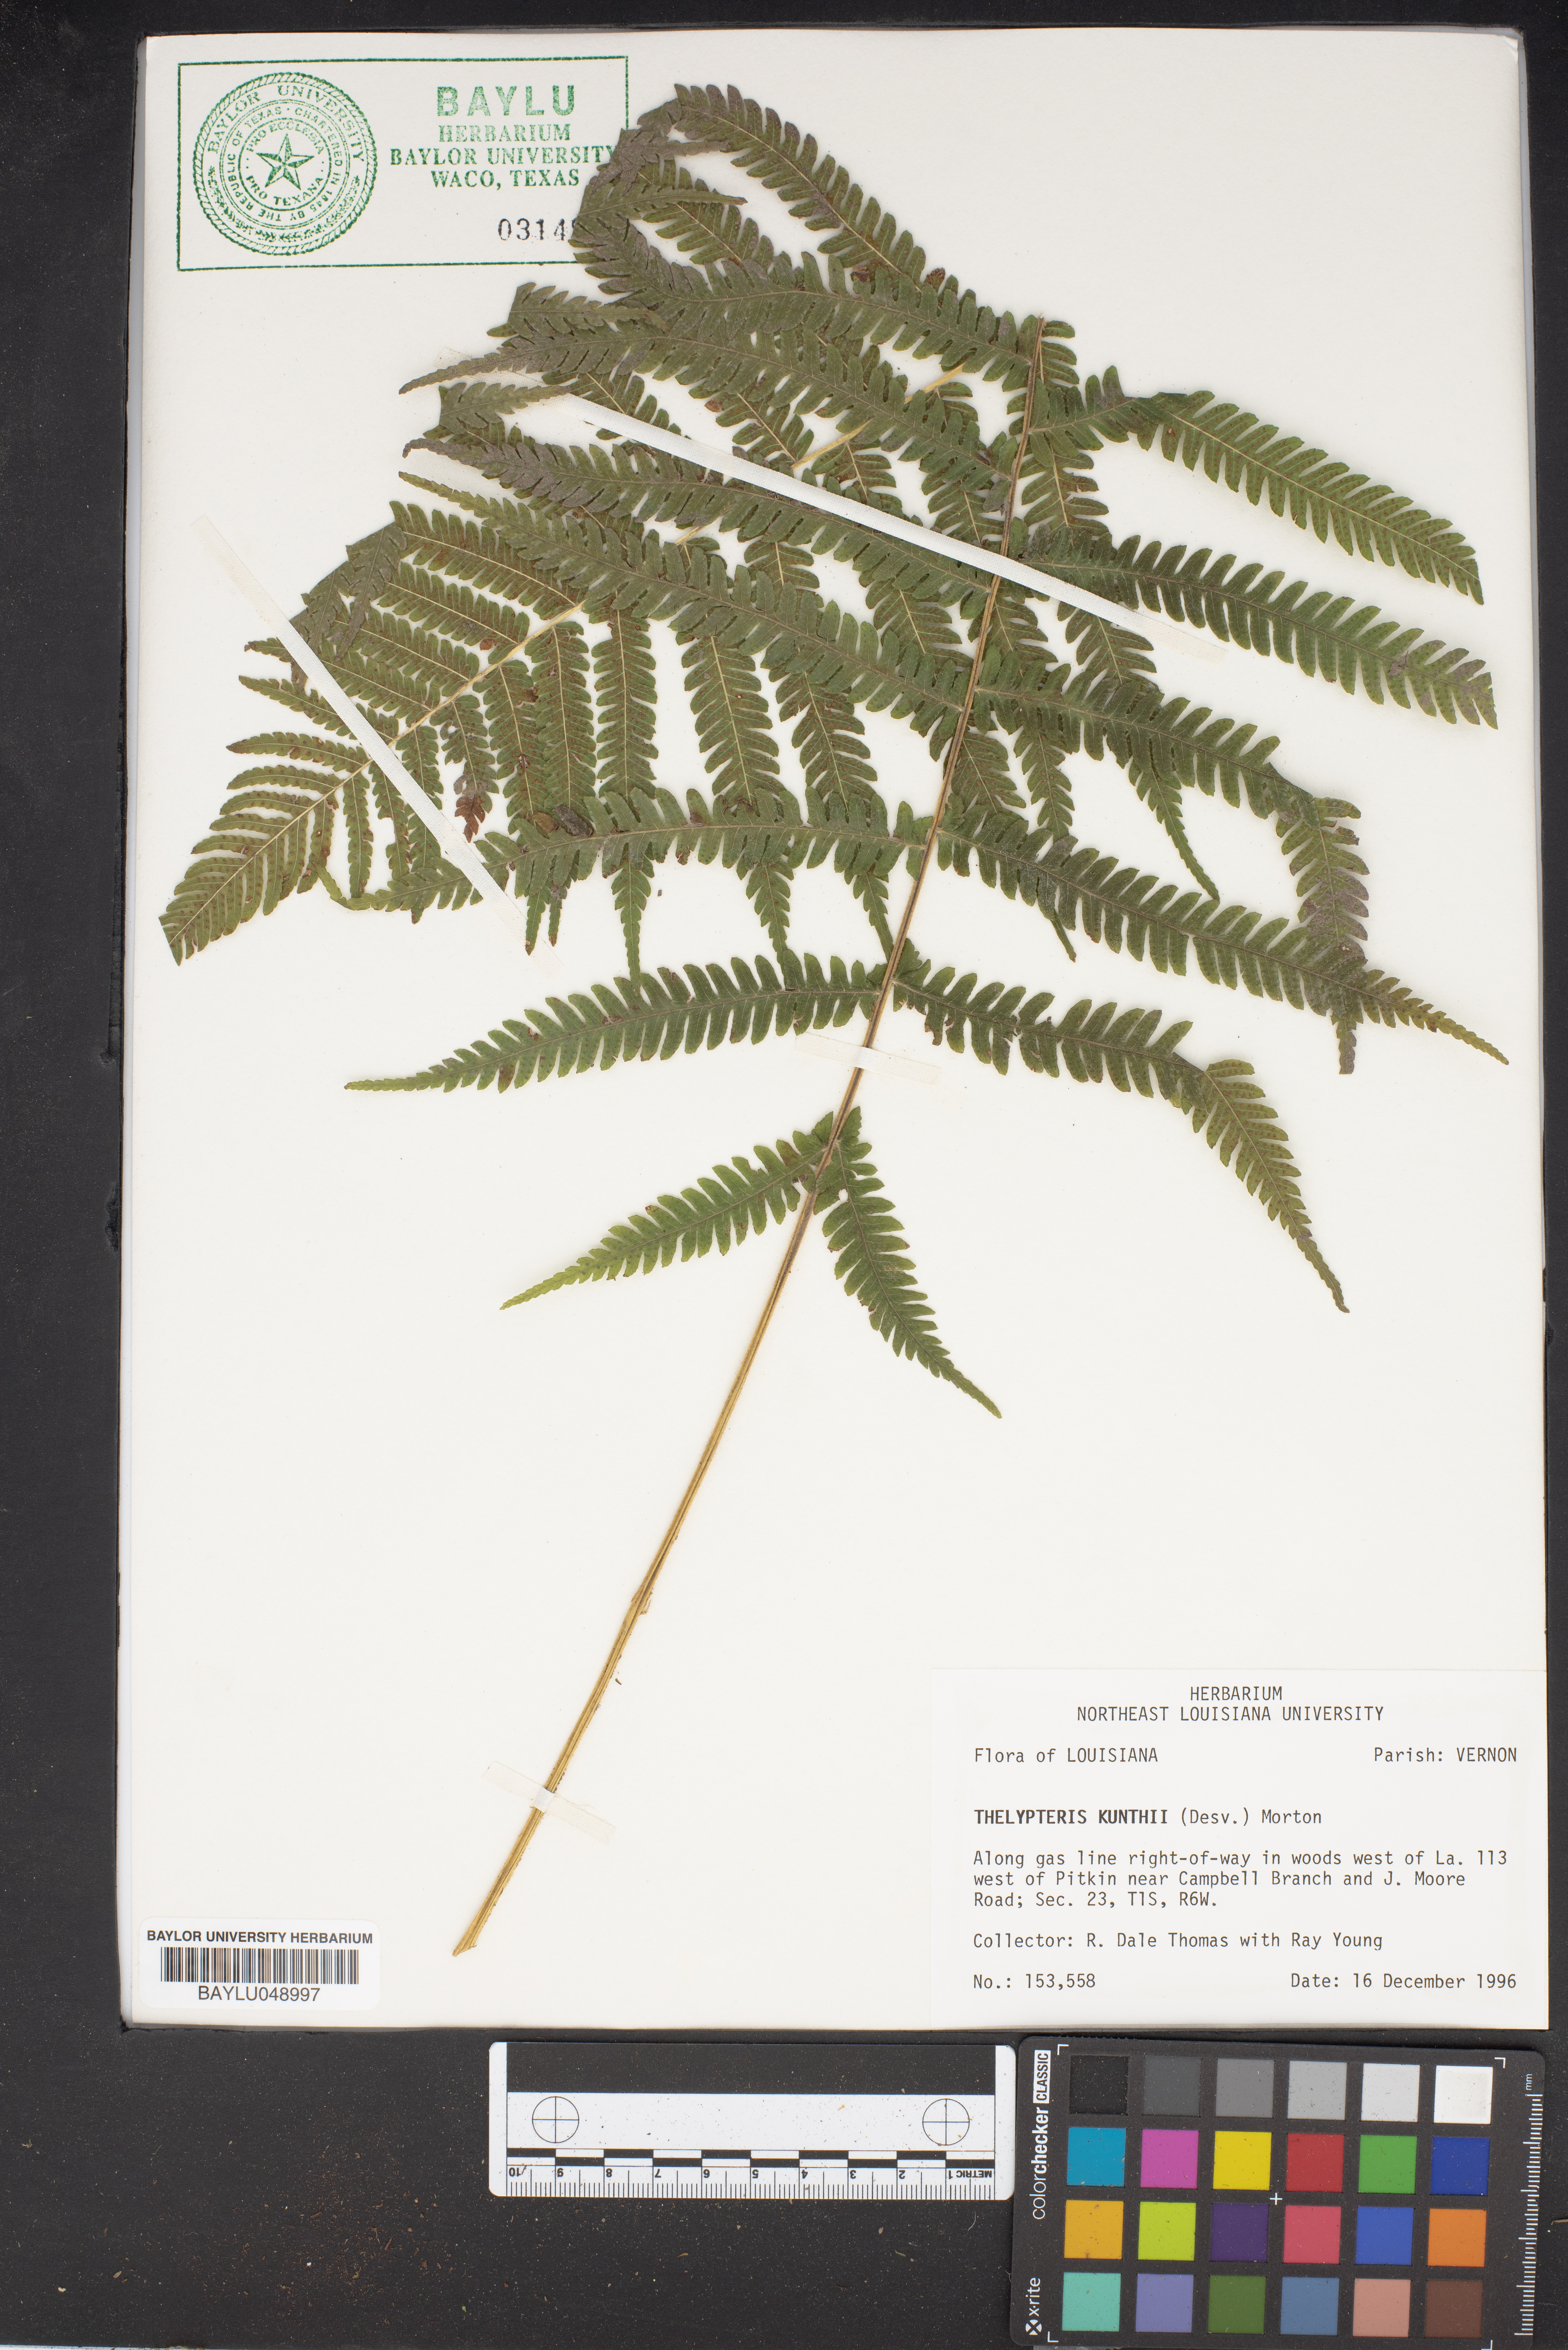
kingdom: Plantae
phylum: Tracheophyta
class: Polypodiopsida
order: Polypodiales
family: Thelypteridaceae
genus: Pelazoneuron
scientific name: Pelazoneuron kunthii
